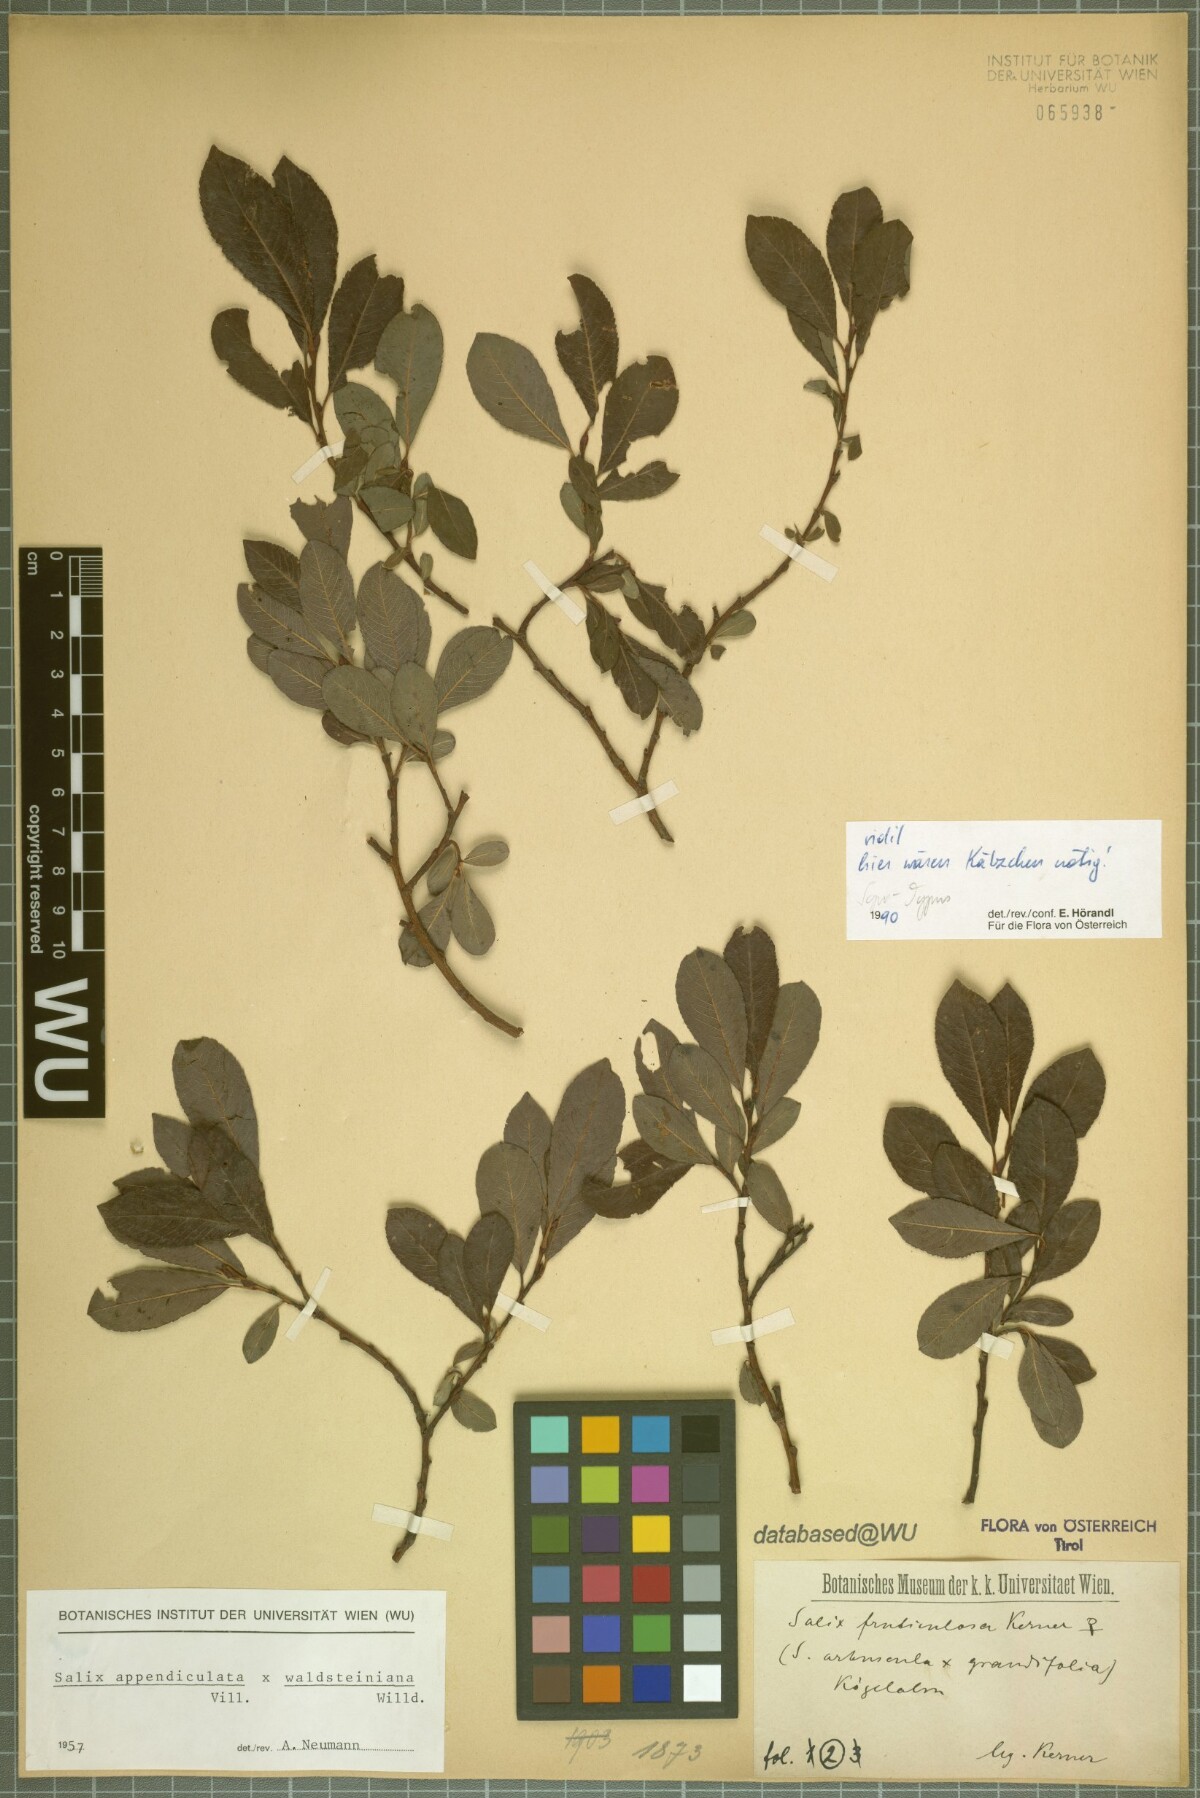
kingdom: Plantae
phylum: Tracheophyta
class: Magnoliopsida
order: Malpighiales
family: Salicaceae
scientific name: Salicaceae
